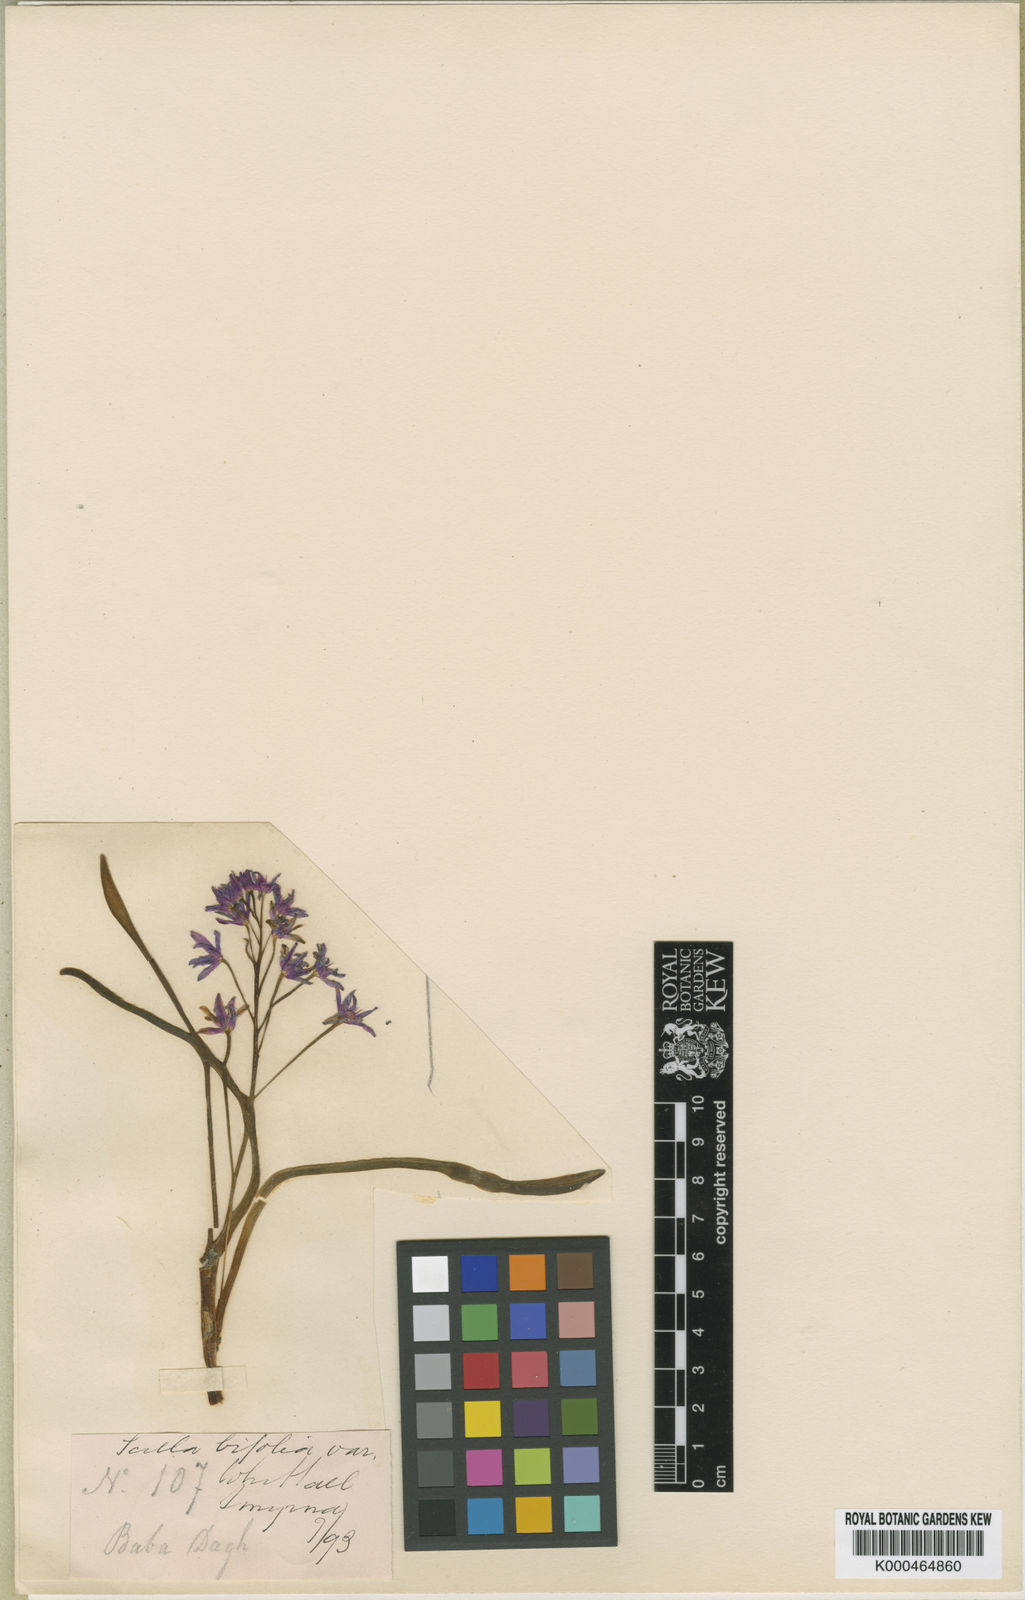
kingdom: Plantae
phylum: Tracheophyta
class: Liliopsida
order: Asparagales
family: Asparagaceae
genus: Scilla
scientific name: Scilla bifolia
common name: Alpine squill
